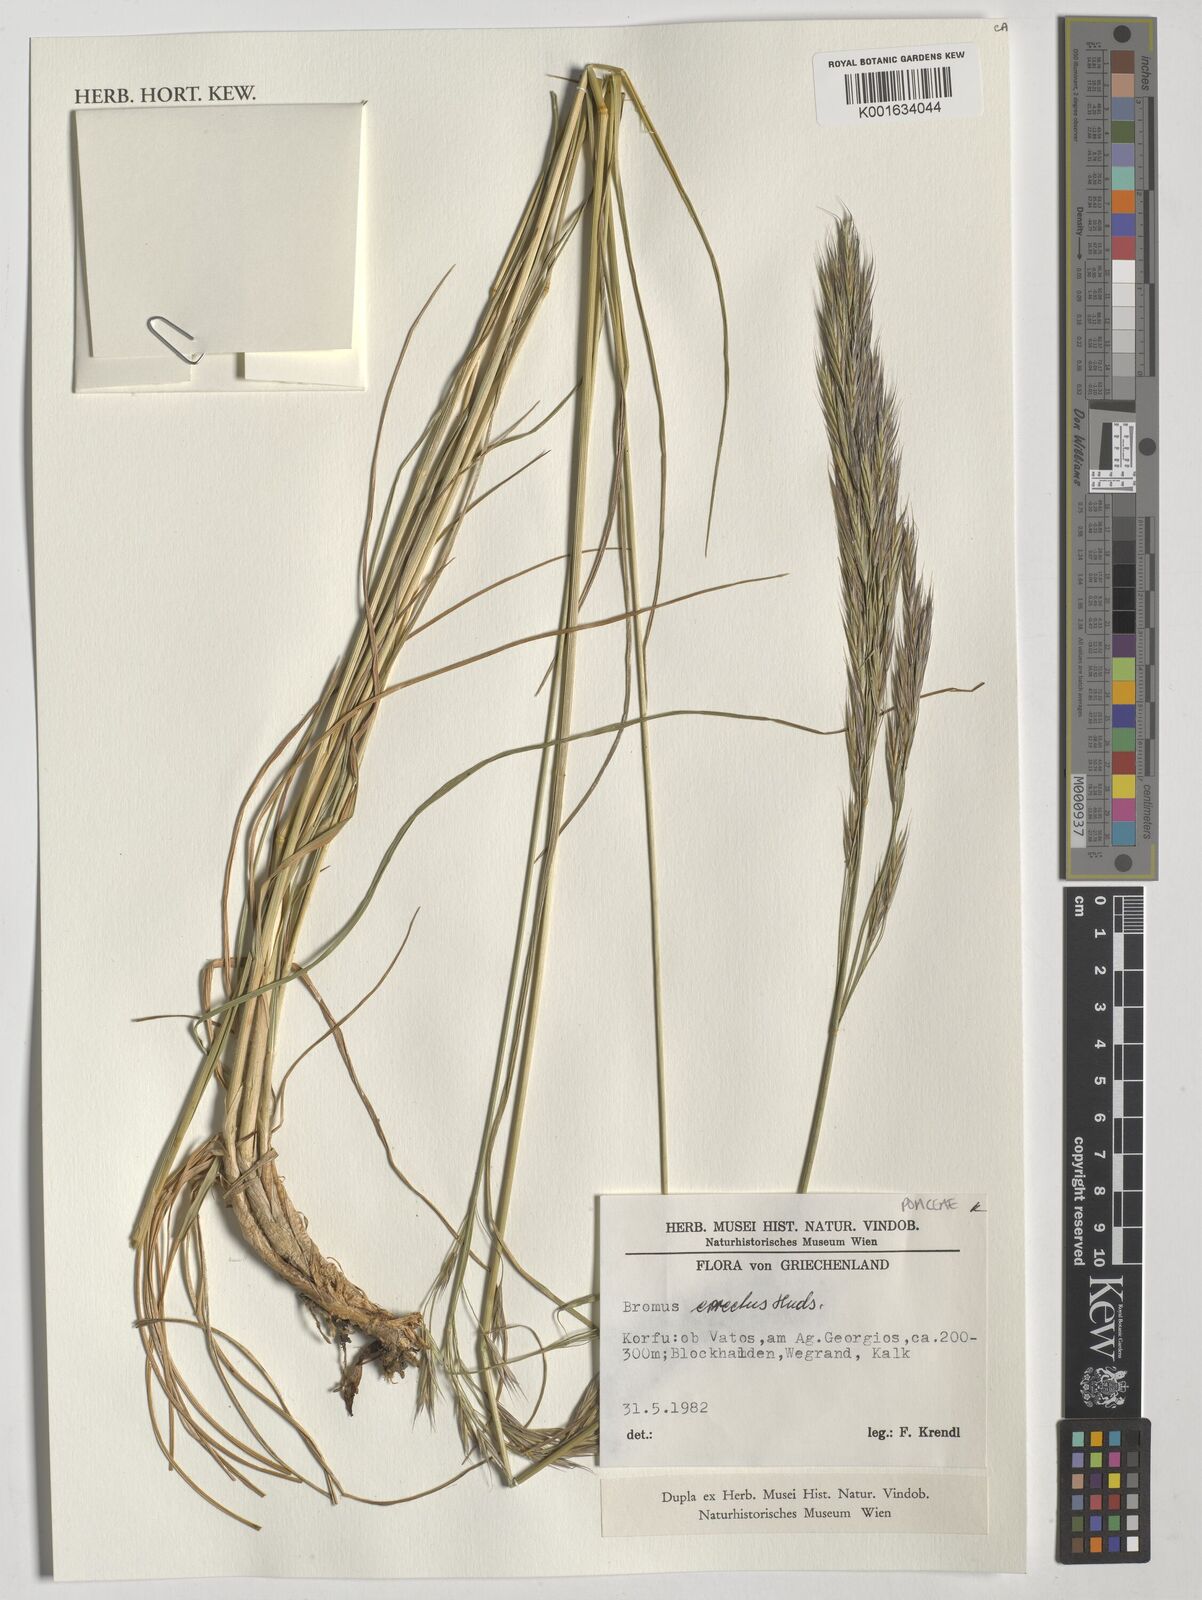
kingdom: Plantae
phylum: Tracheophyta
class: Liliopsida
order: Poales
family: Poaceae
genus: Bromus
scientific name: Bromus erectus
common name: Erect brome
